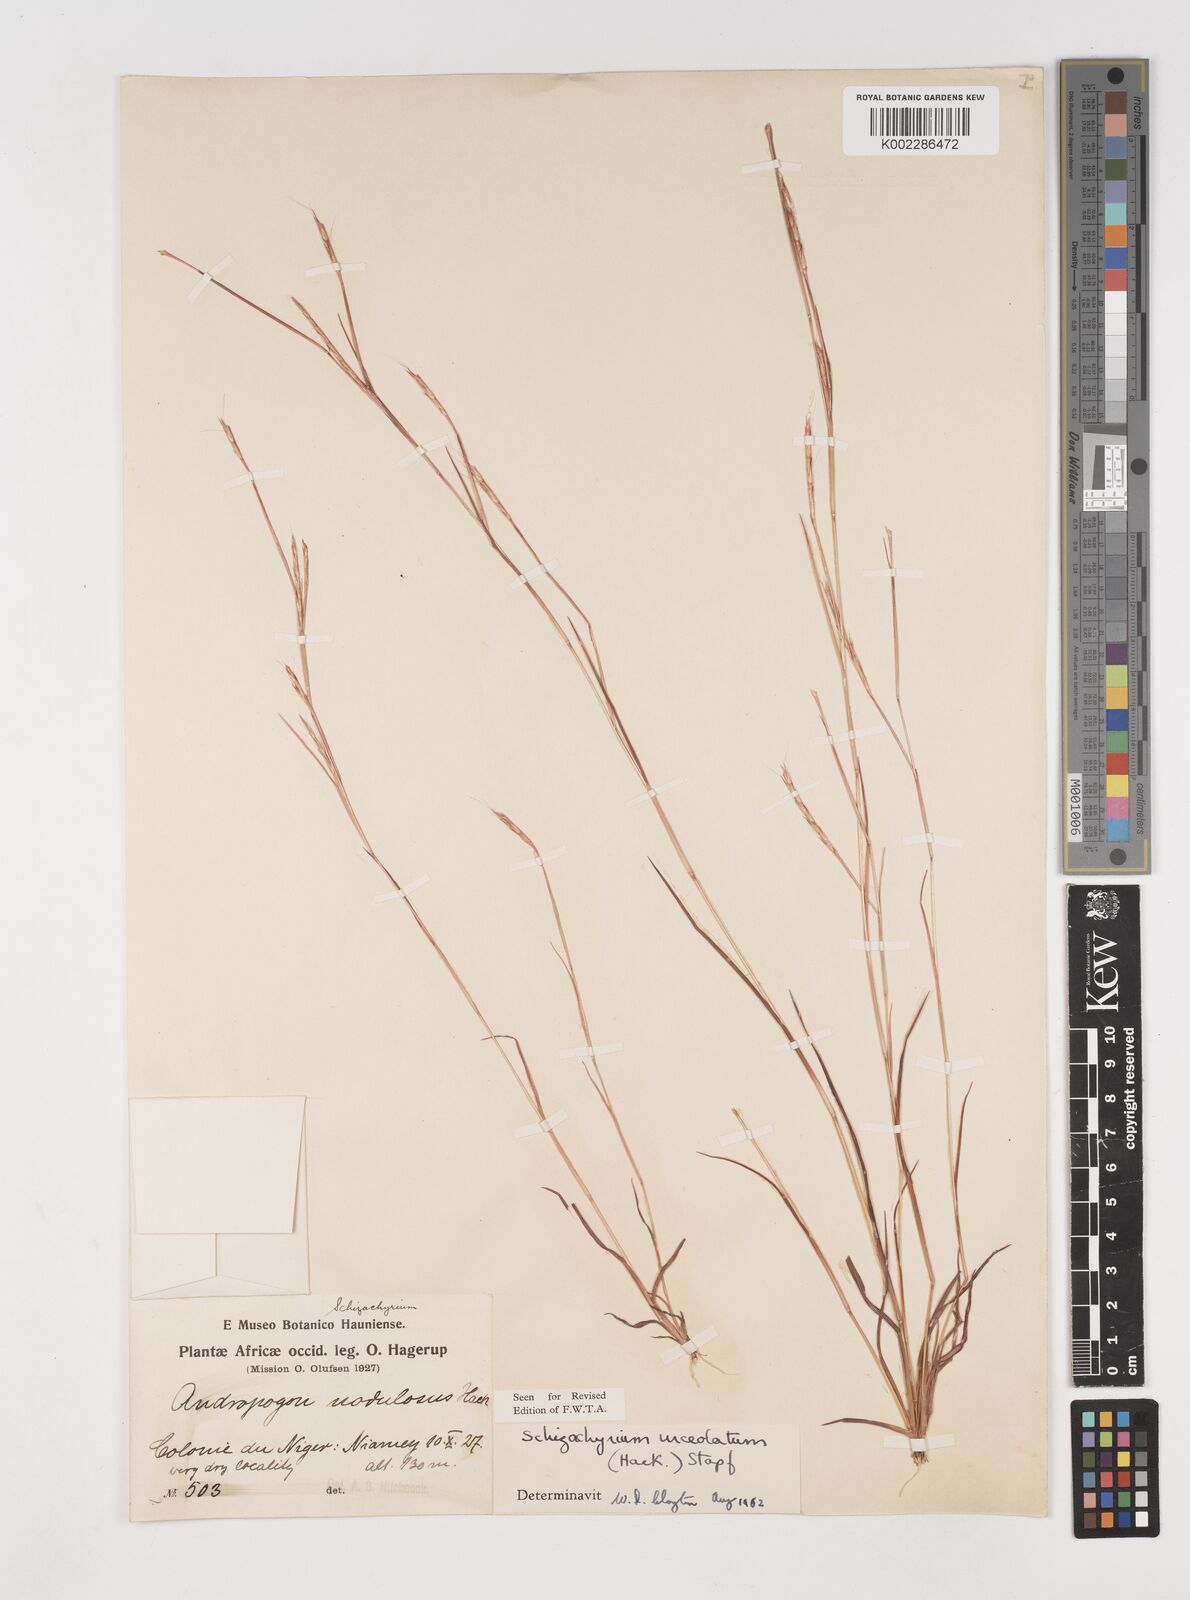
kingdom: Plantae
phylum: Tracheophyta
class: Liliopsida
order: Poales
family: Poaceae
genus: Schizachyrium
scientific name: Schizachyrium urceolatum
